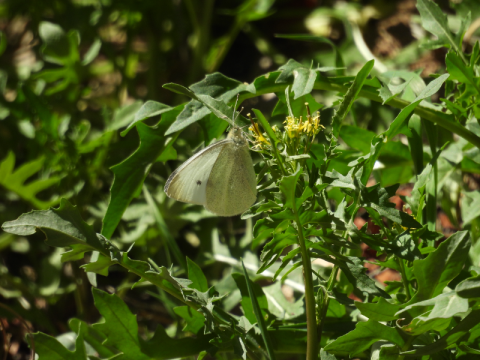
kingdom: Animalia
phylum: Arthropoda
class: Insecta
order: Lepidoptera
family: Pieridae
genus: Pieris
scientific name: Pieris rapae
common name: Cabbage White
